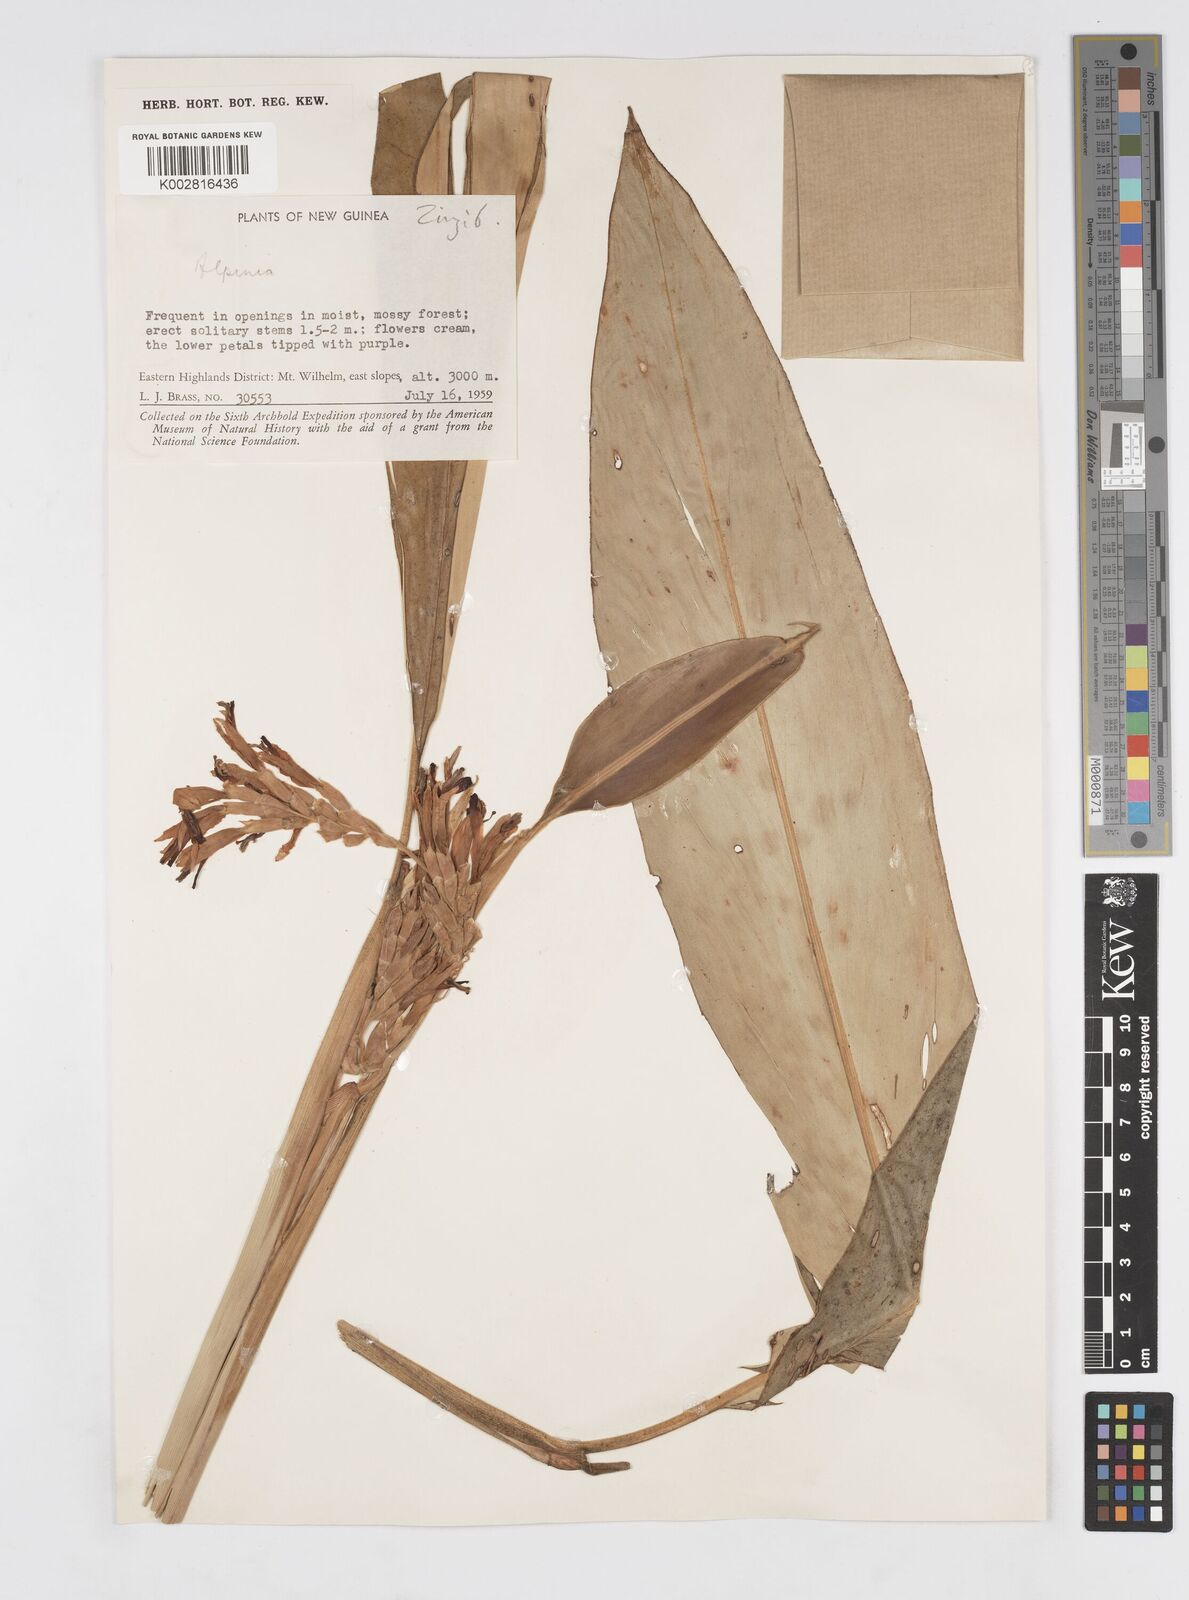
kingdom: Plantae
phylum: Tracheophyta
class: Liliopsida
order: Zingiberales
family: Zingiberaceae
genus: Alpinia
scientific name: Alpinia
